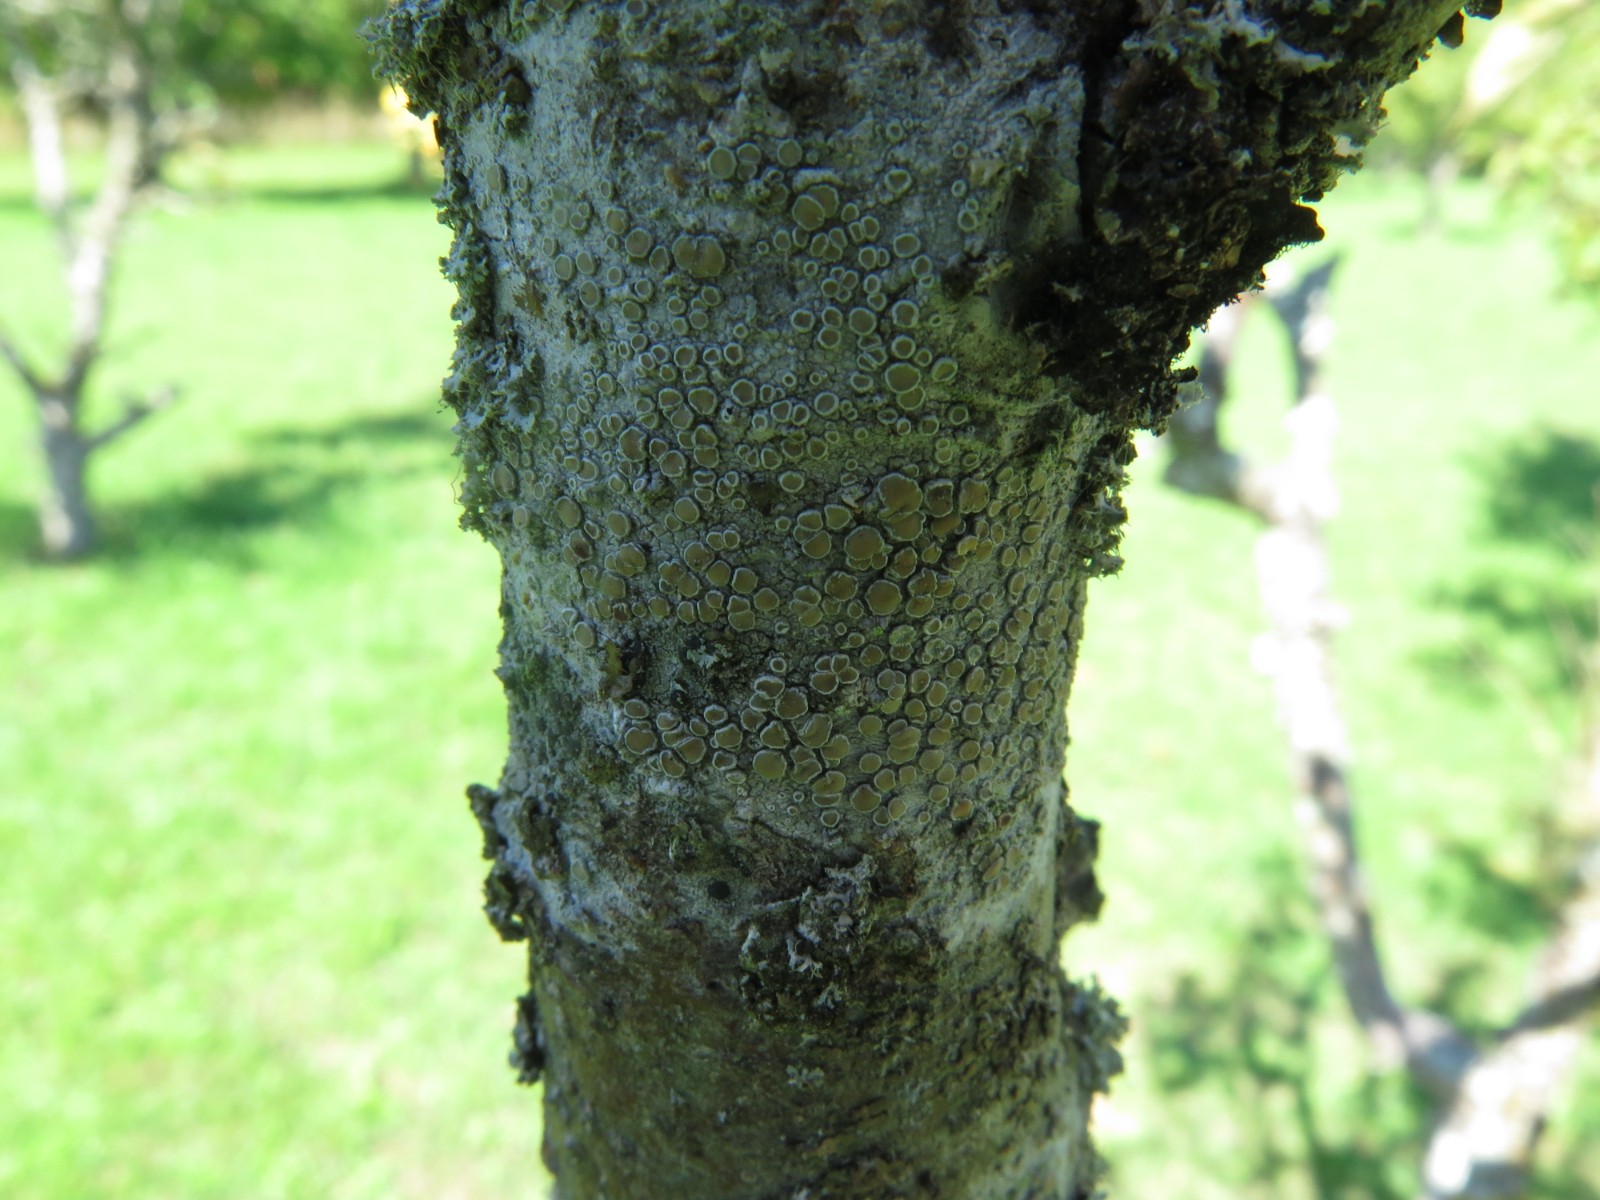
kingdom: Fungi
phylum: Ascomycota
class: Lecanoromycetes
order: Lecanorales
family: Lecanoraceae
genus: Lecanora
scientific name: Lecanora chlarotera
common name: brun kantskivelav
